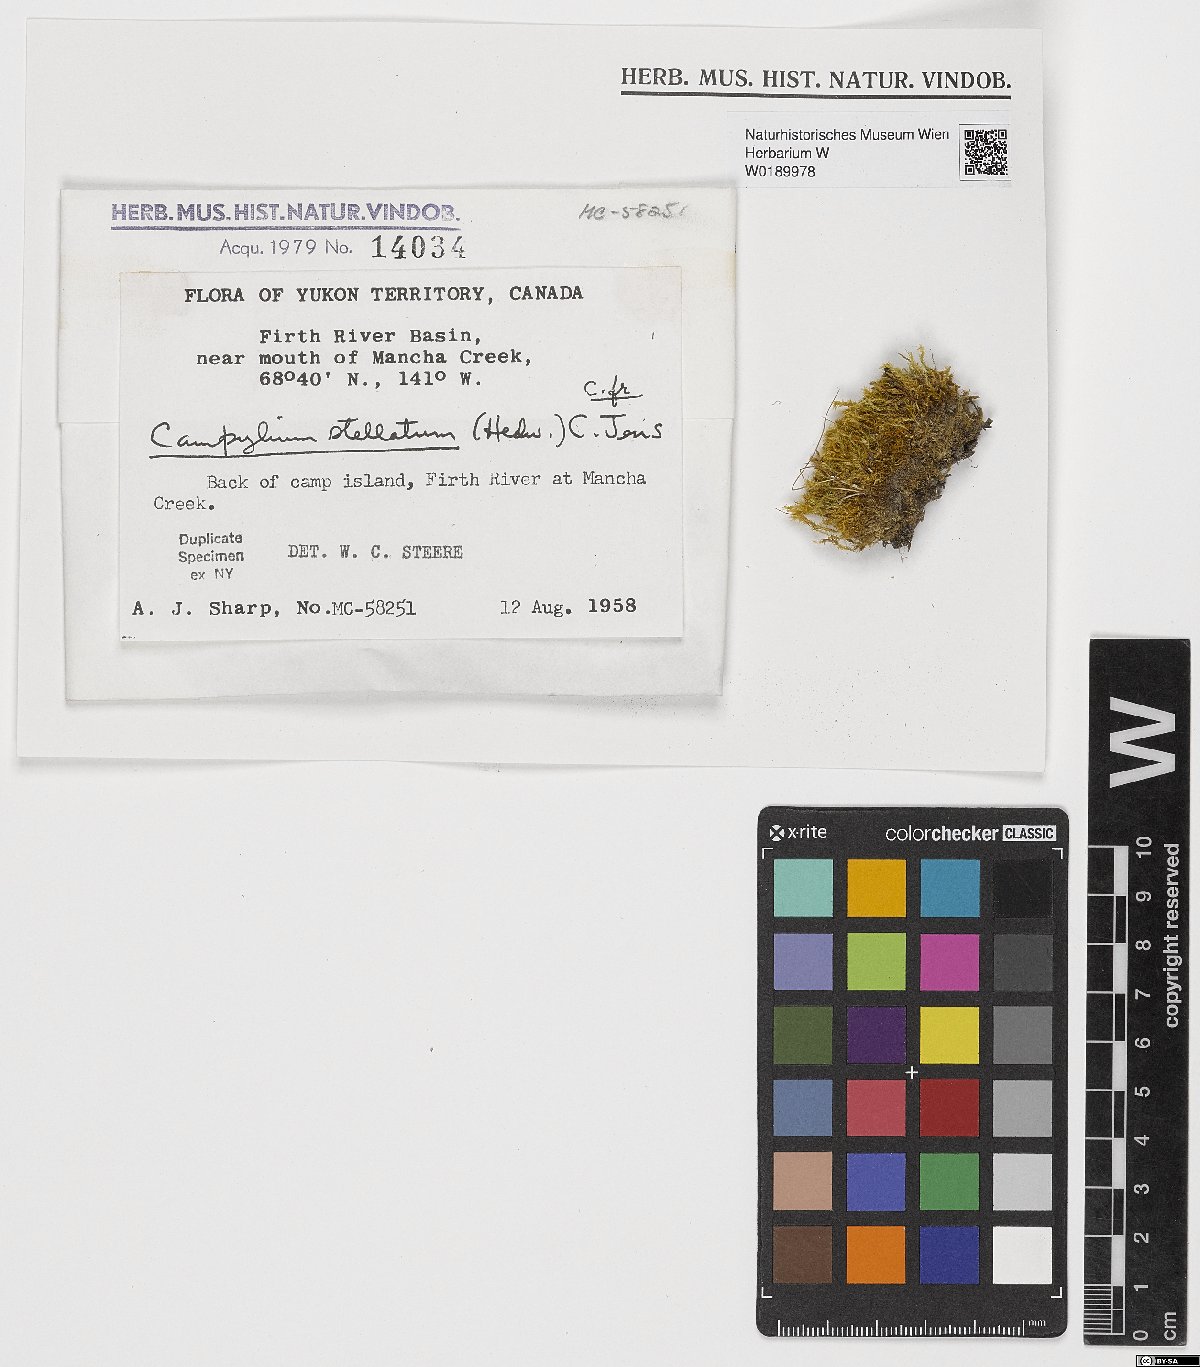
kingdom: Plantae
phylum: Bryophyta
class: Bryopsida
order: Hypnales
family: Amblystegiaceae
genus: Campylium
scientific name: Campylium stellatum
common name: Yellow starry fen moss
